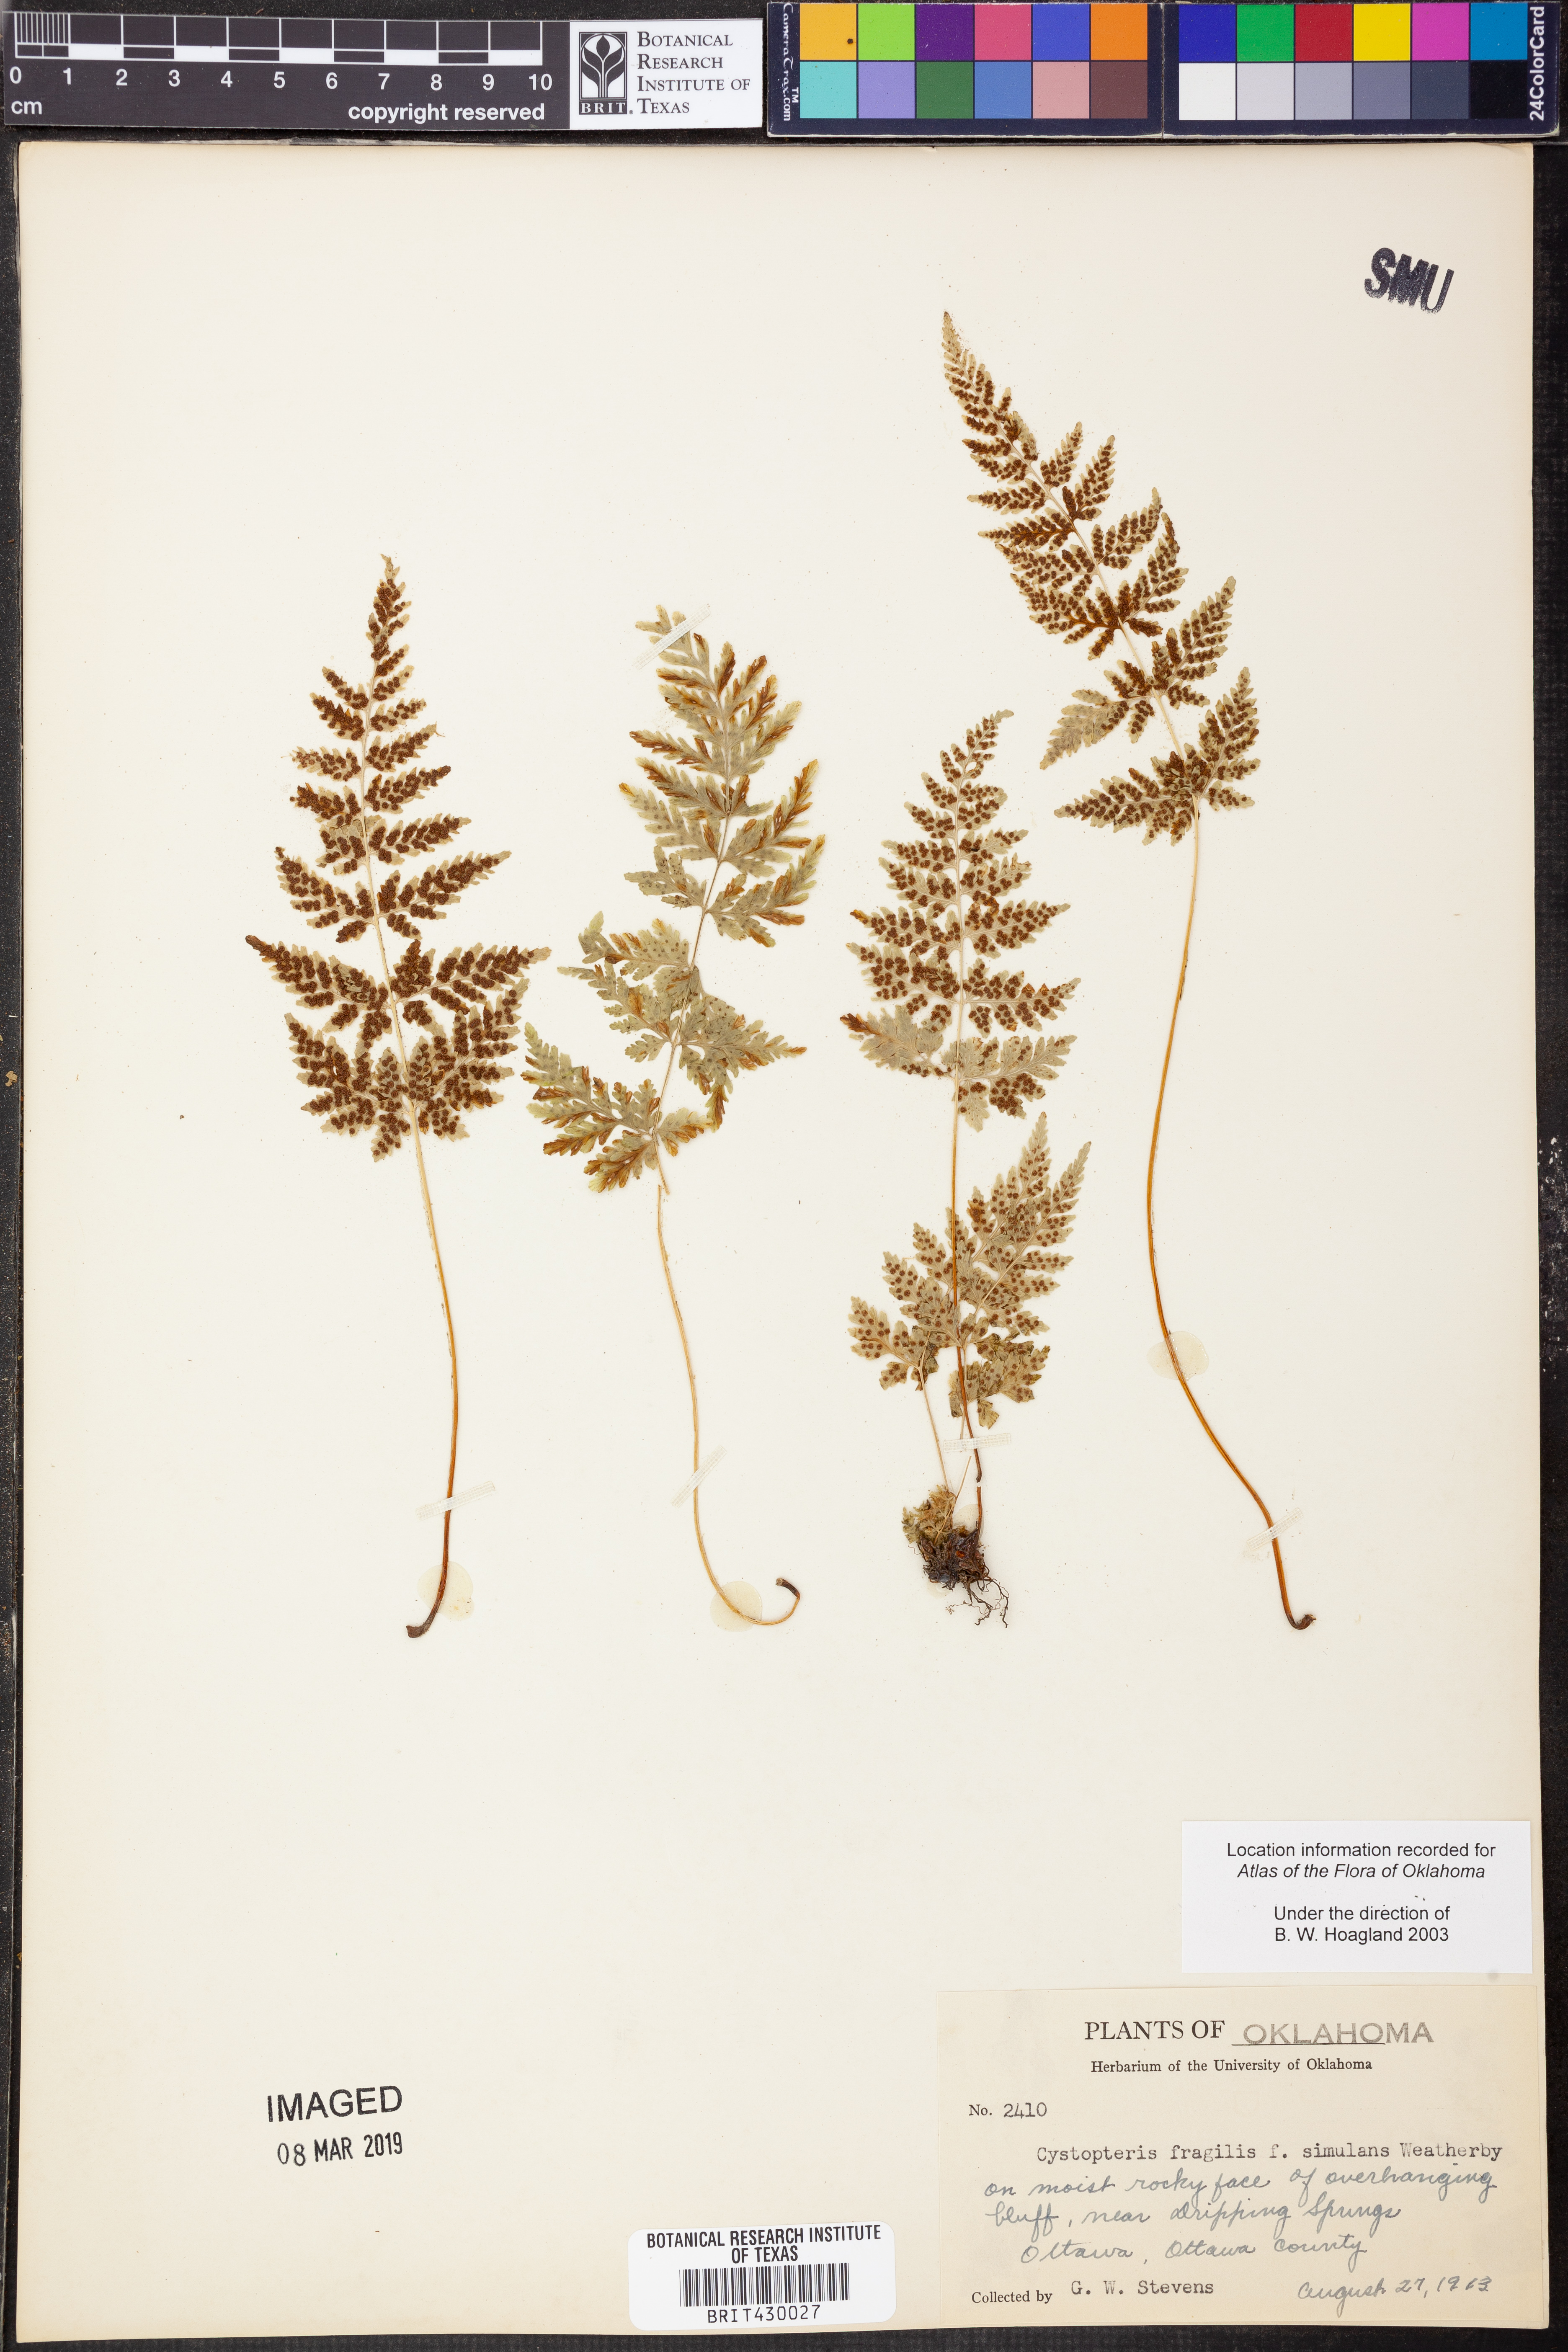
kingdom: Plantae
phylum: Tracheophyta
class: Polypodiopsida
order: Polypodiales
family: Cystopteridaceae
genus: Cystopteris
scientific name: Cystopteris fragilis
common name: Brittle bladder fern
